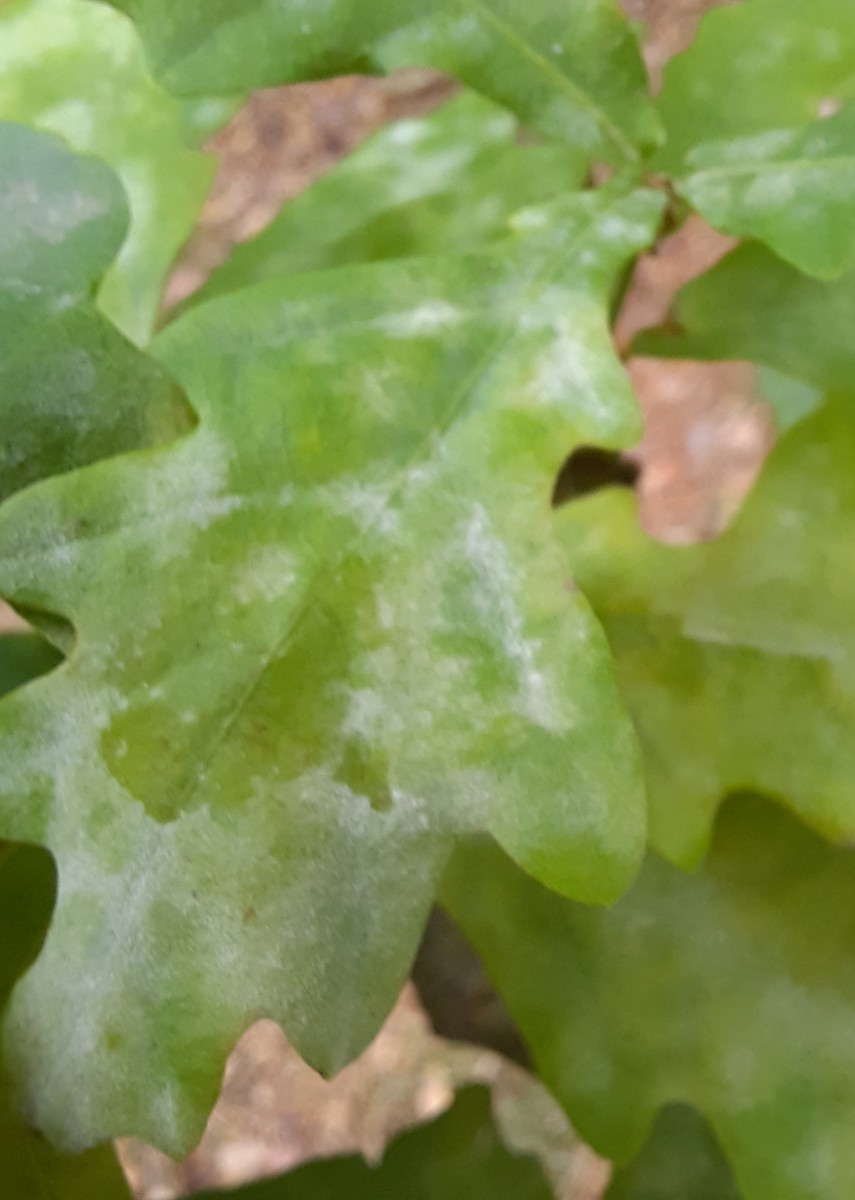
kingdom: Fungi
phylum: Ascomycota
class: Leotiomycetes
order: Helotiales
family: Erysiphaceae
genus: Erysiphe
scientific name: Erysiphe alphitoides
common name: ege-meldug
